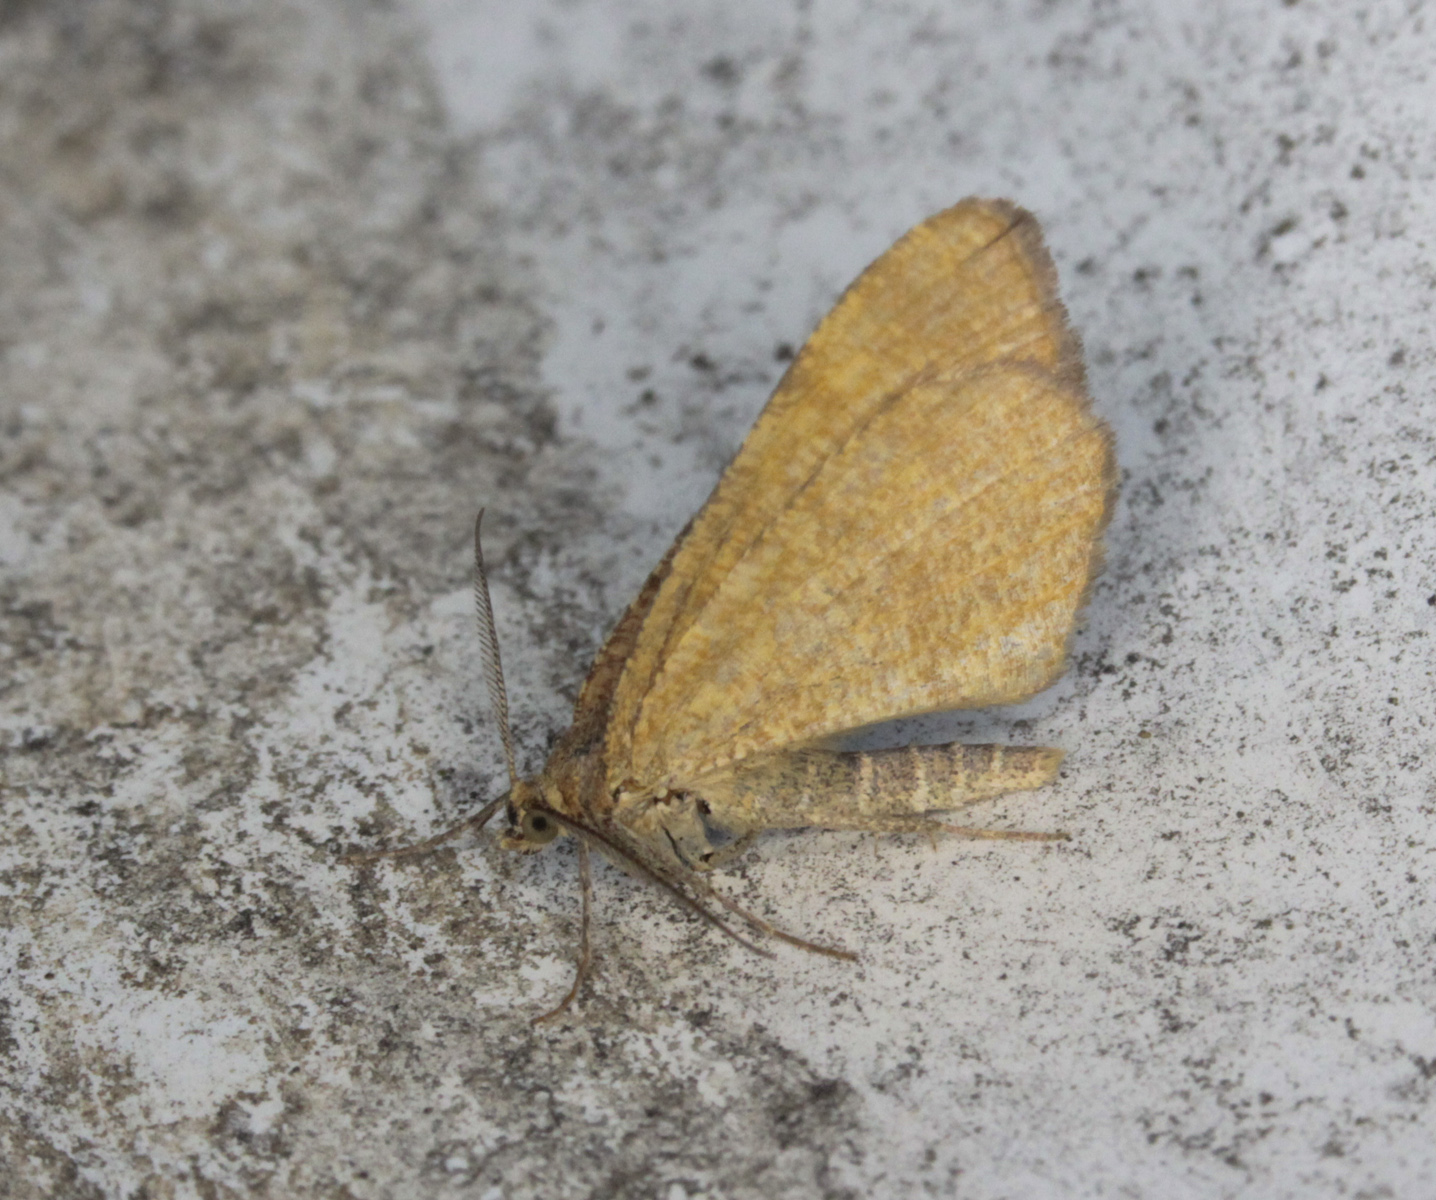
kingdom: Animalia
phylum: Arthropoda
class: Insecta
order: Lepidoptera
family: Geometridae
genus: Macaria
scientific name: Macaria brunneata
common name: Rannoch looper
